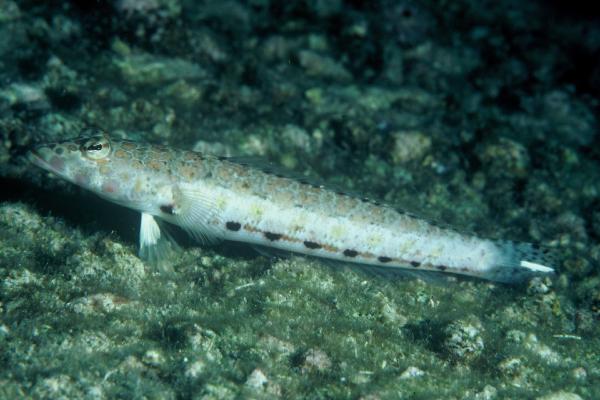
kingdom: Animalia
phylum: Chordata
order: Perciformes
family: Pinguipedidae
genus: Parapercis
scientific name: Parapercis clathrata
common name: Latticed sandperch
